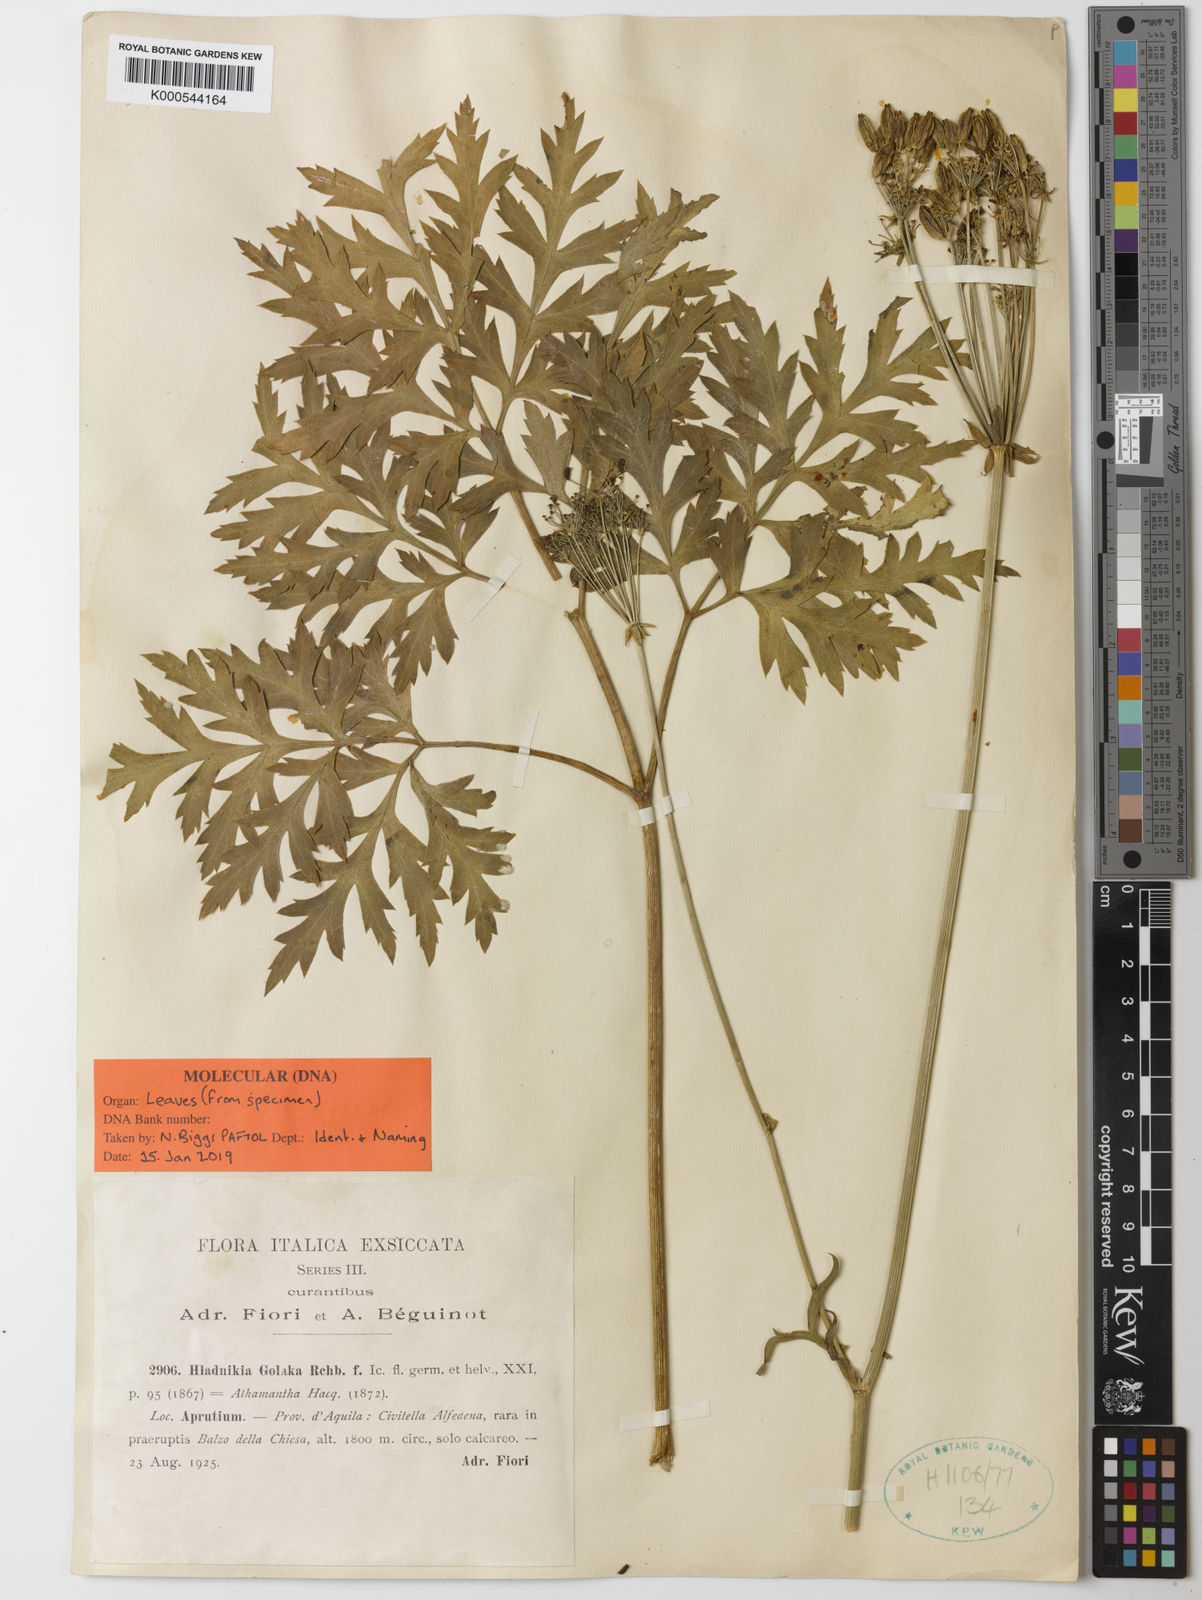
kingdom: Plantae
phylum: Tracheophyta
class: Magnoliopsida
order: Apiales
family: Apiaceae
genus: Grafia
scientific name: Grafia
